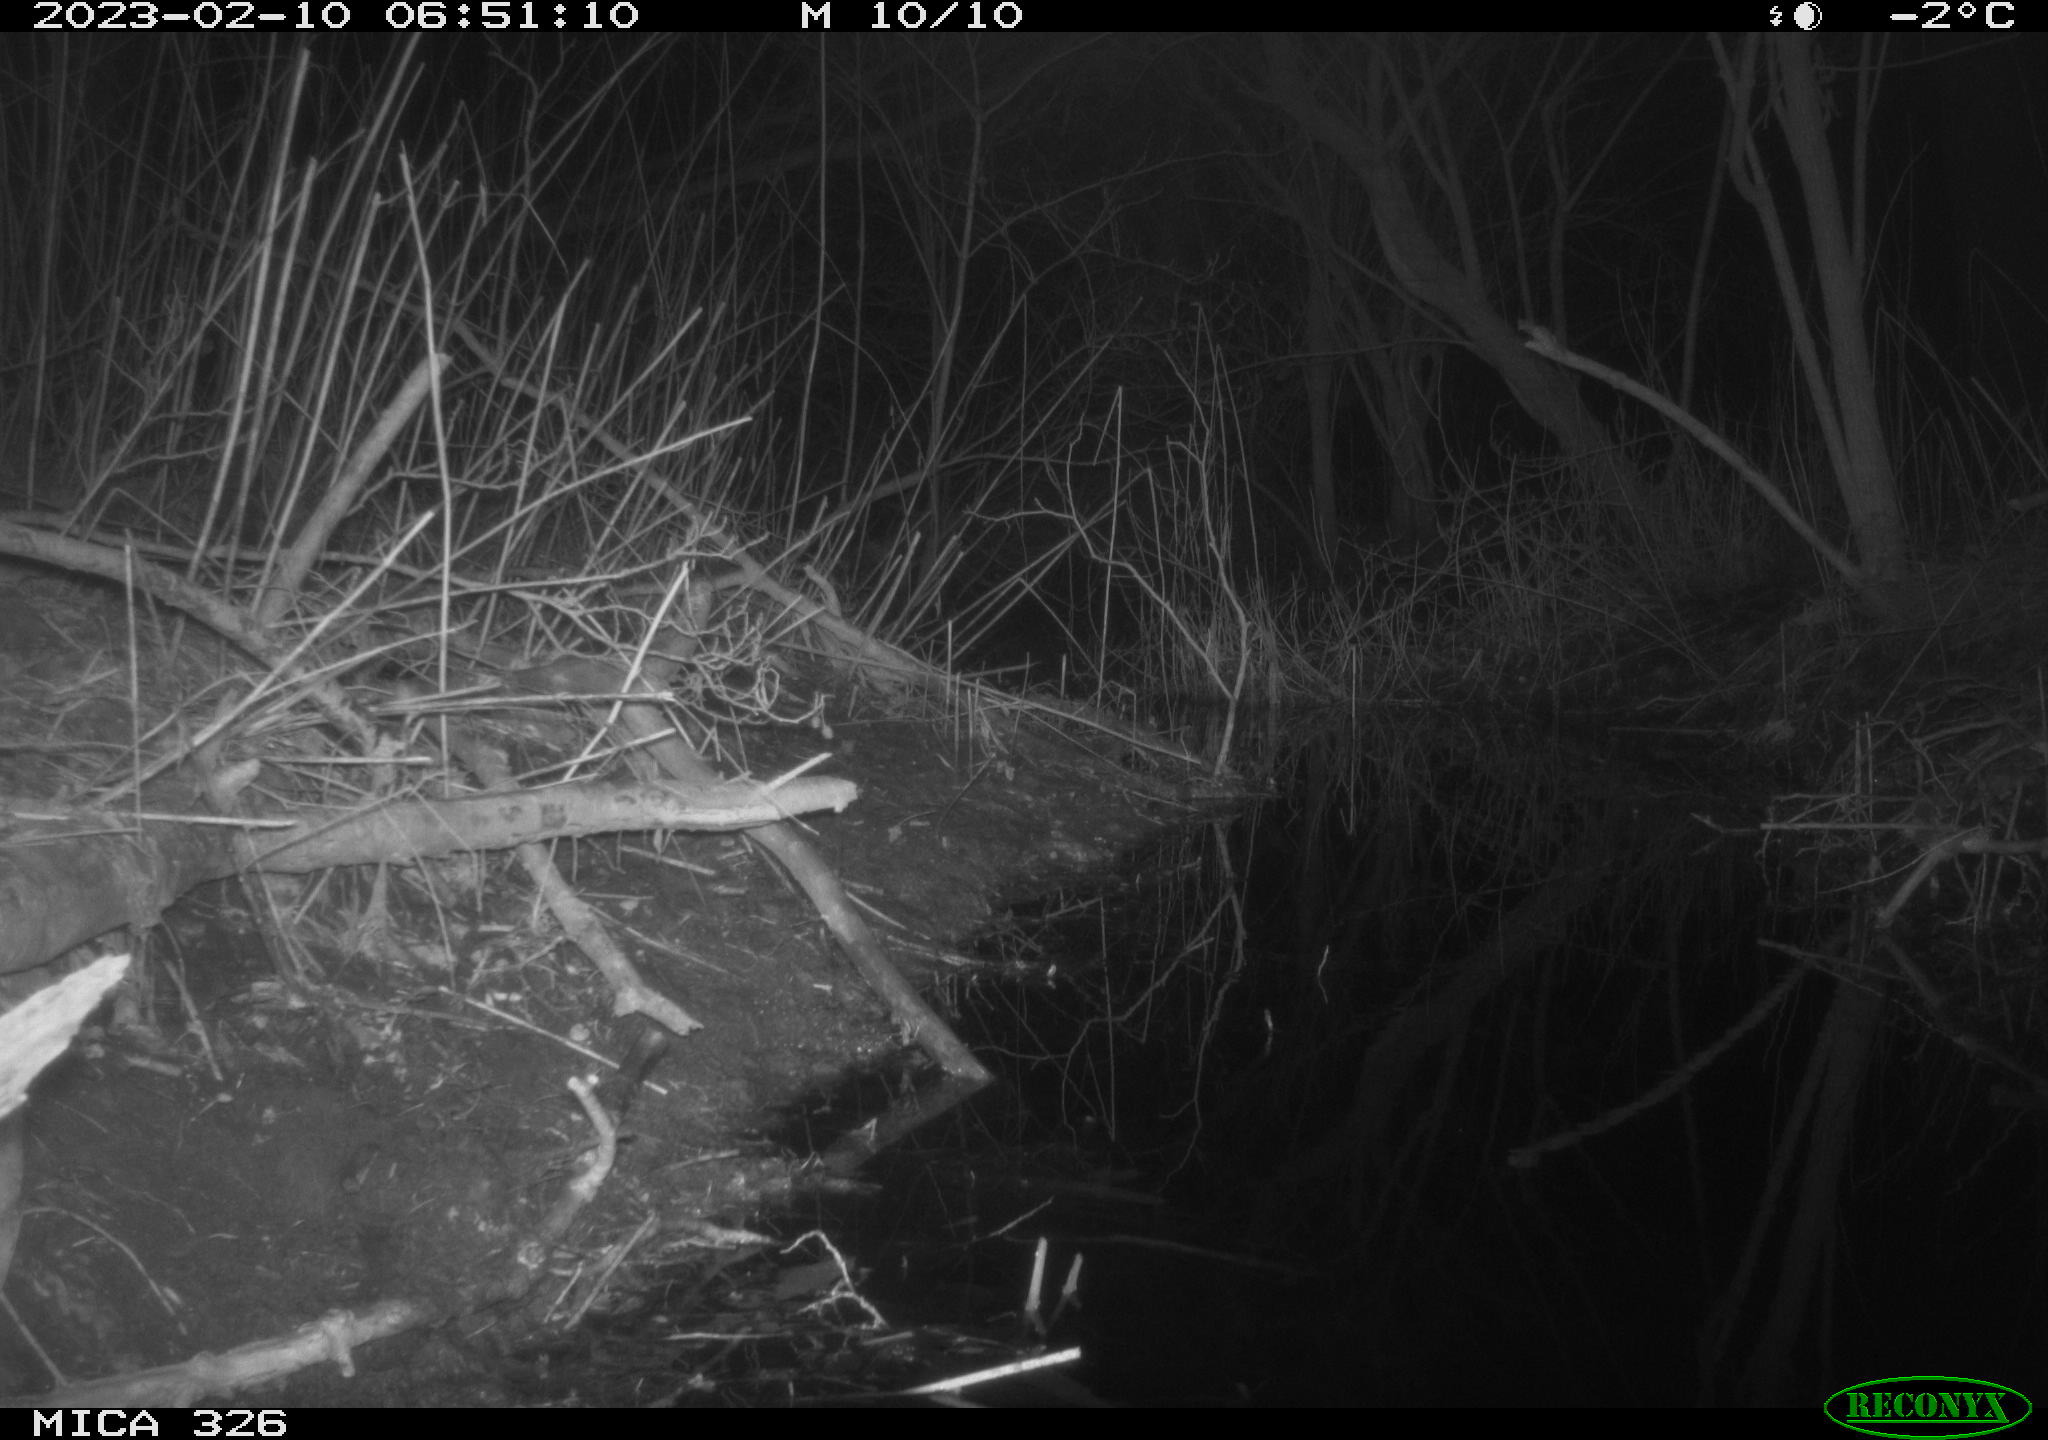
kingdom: Animalia
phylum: Chordata
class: Mammalia
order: Rodentia
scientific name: Rodentia
